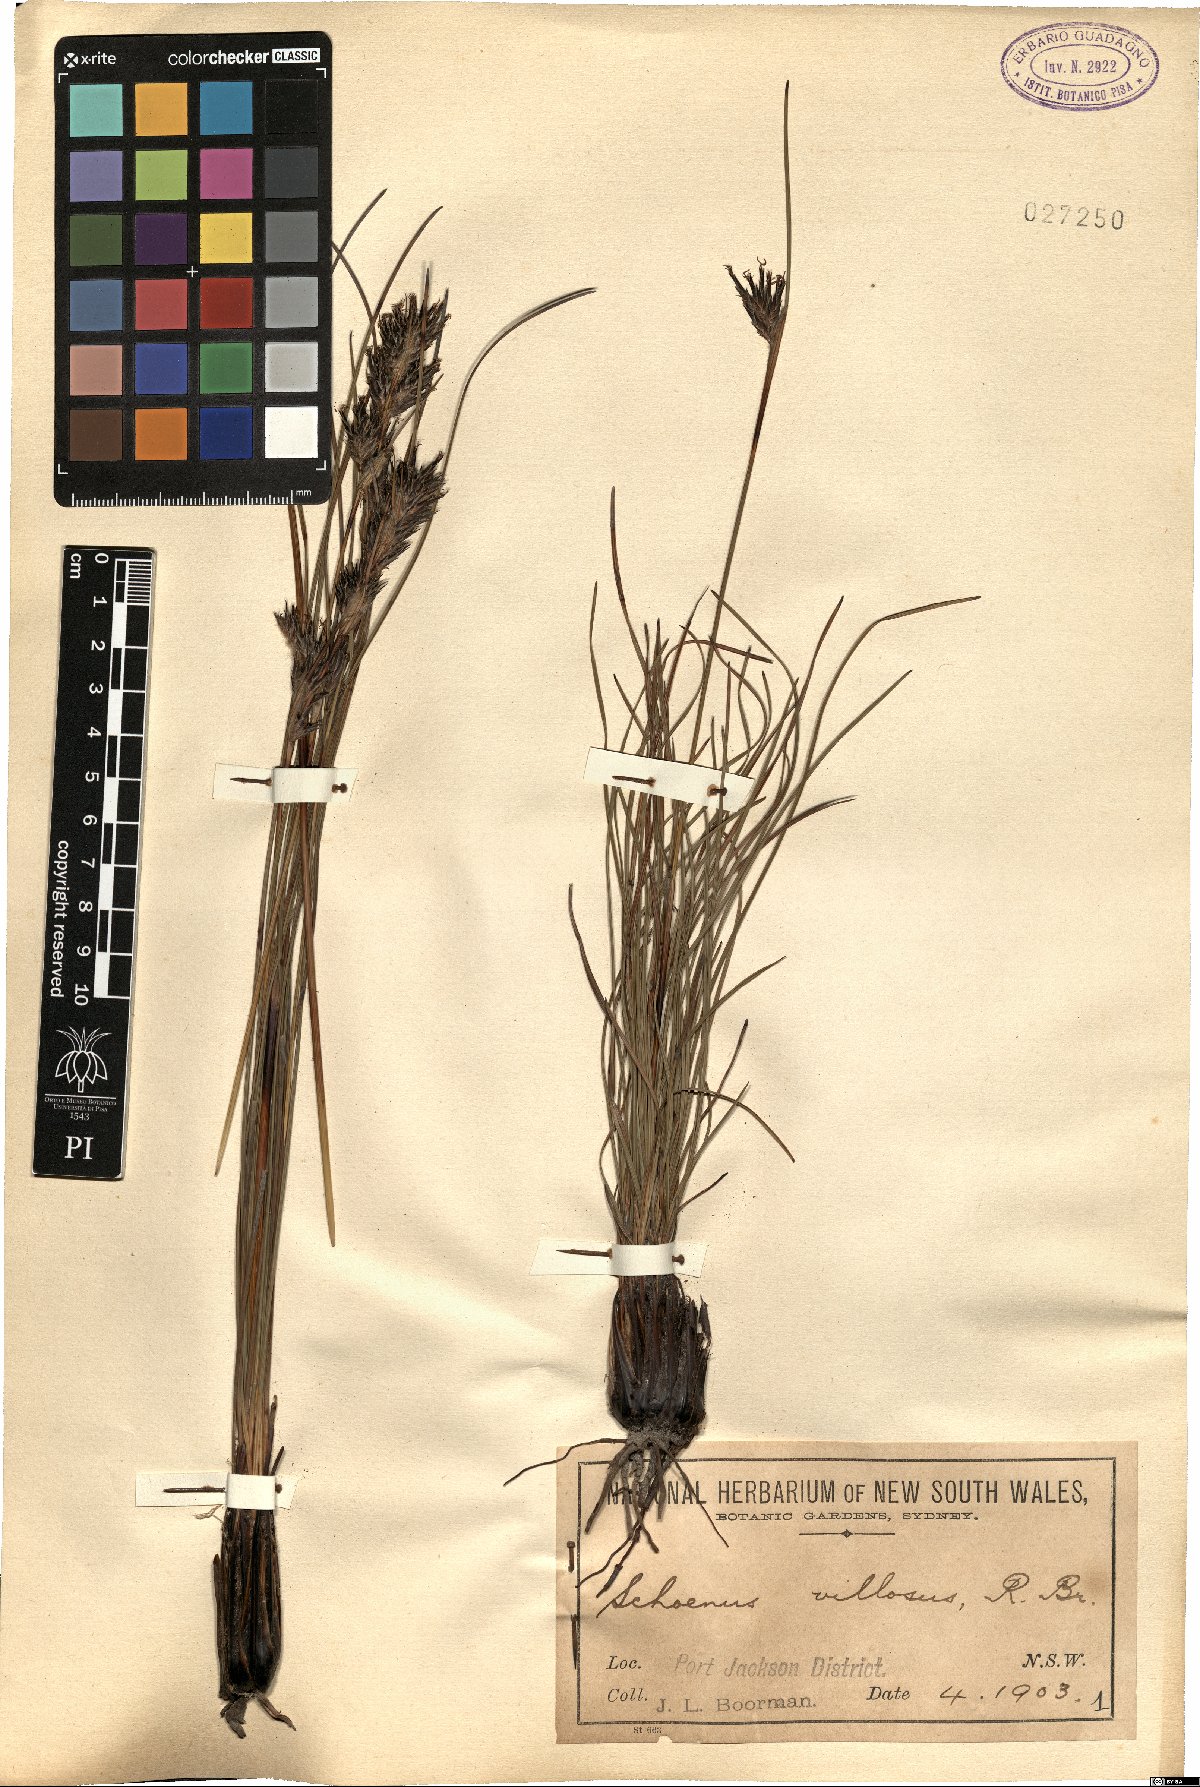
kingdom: Plantae
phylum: Tracheophyta
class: Liliopsida
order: Poales
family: Cyperaceae
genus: Schoenus
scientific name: Schoenus villosus
